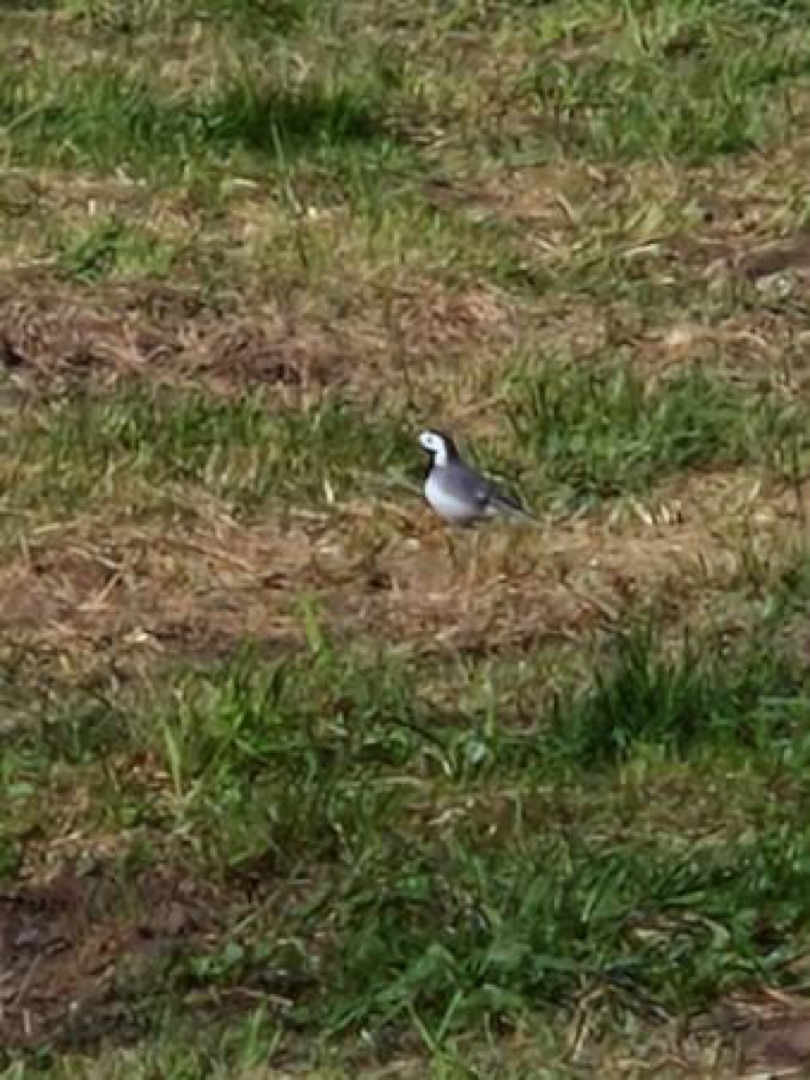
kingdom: Animalia
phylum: Chordata
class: Aves
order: Passeriformes
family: Motacillidae
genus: Motacilla
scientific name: Motacilla alba
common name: Hvid vipstjert
